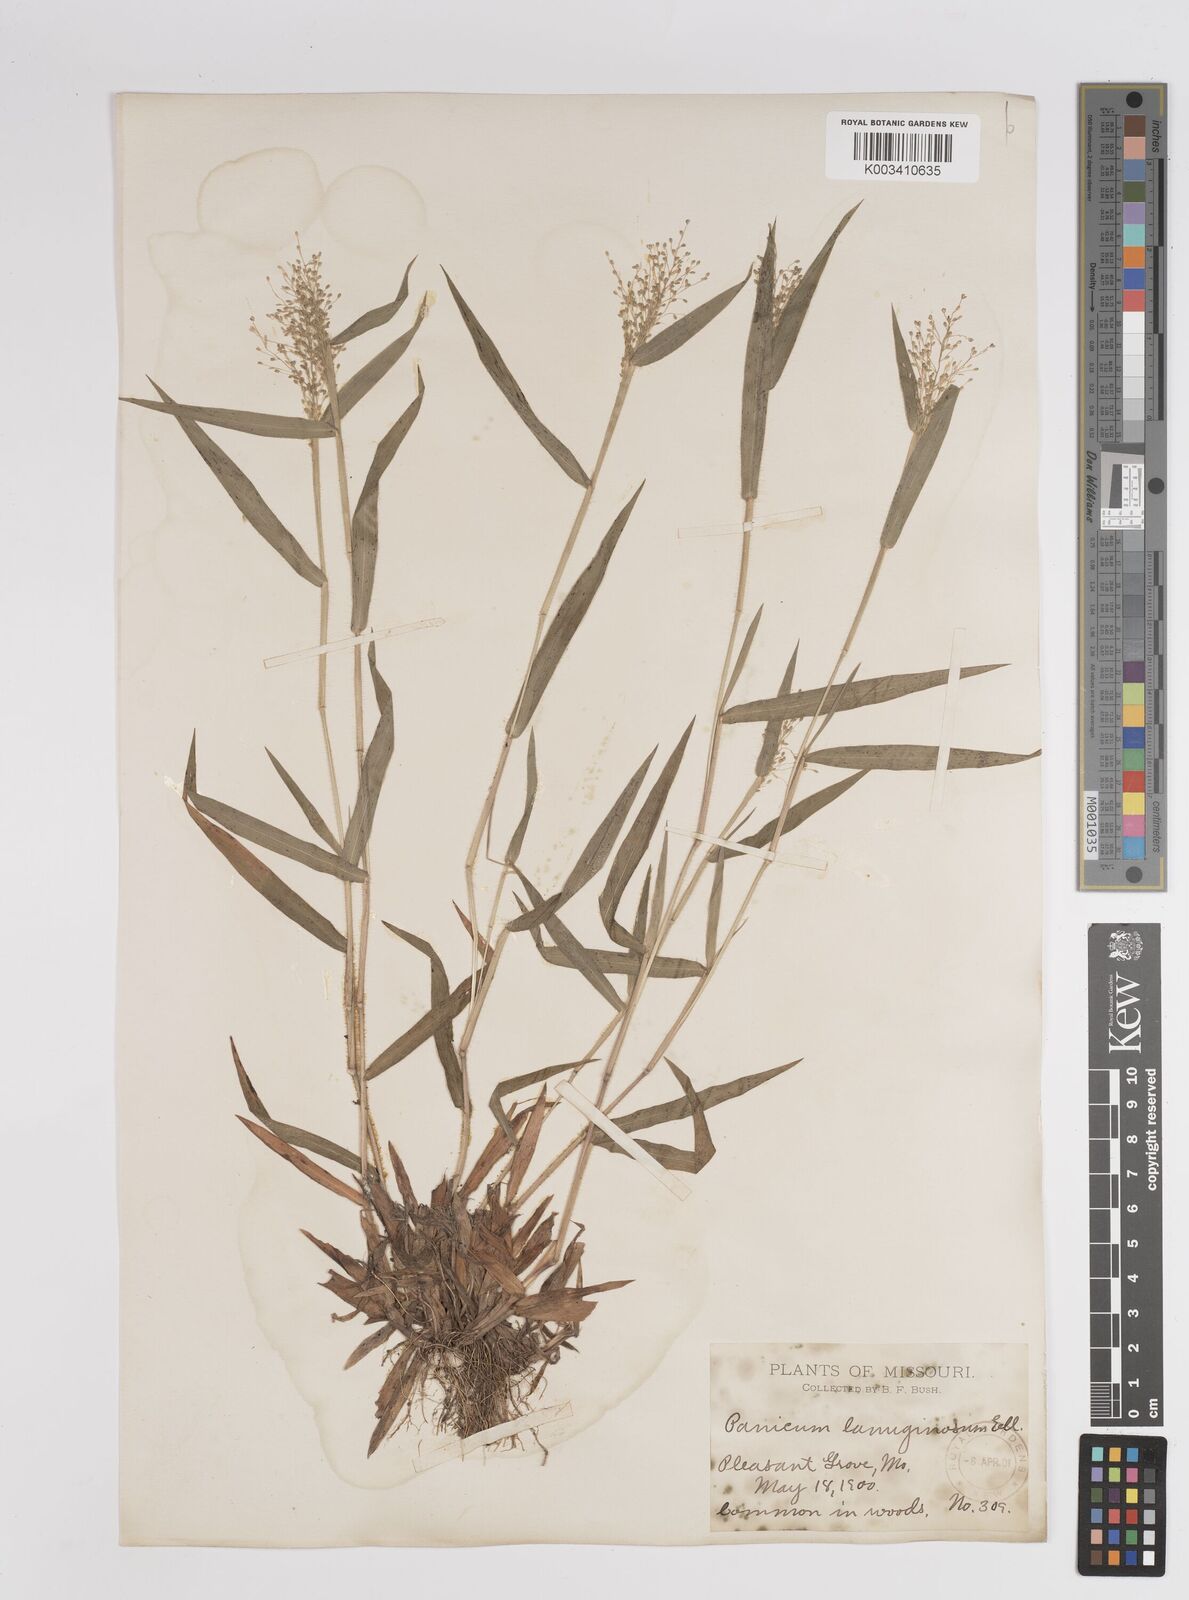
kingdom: Plantae
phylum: Tracheophyta
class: Liliopsida
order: Poales
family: Poaceae
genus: Dichanthelium
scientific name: Dichanthelium lanuginosum
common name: Woolly panicgrass
